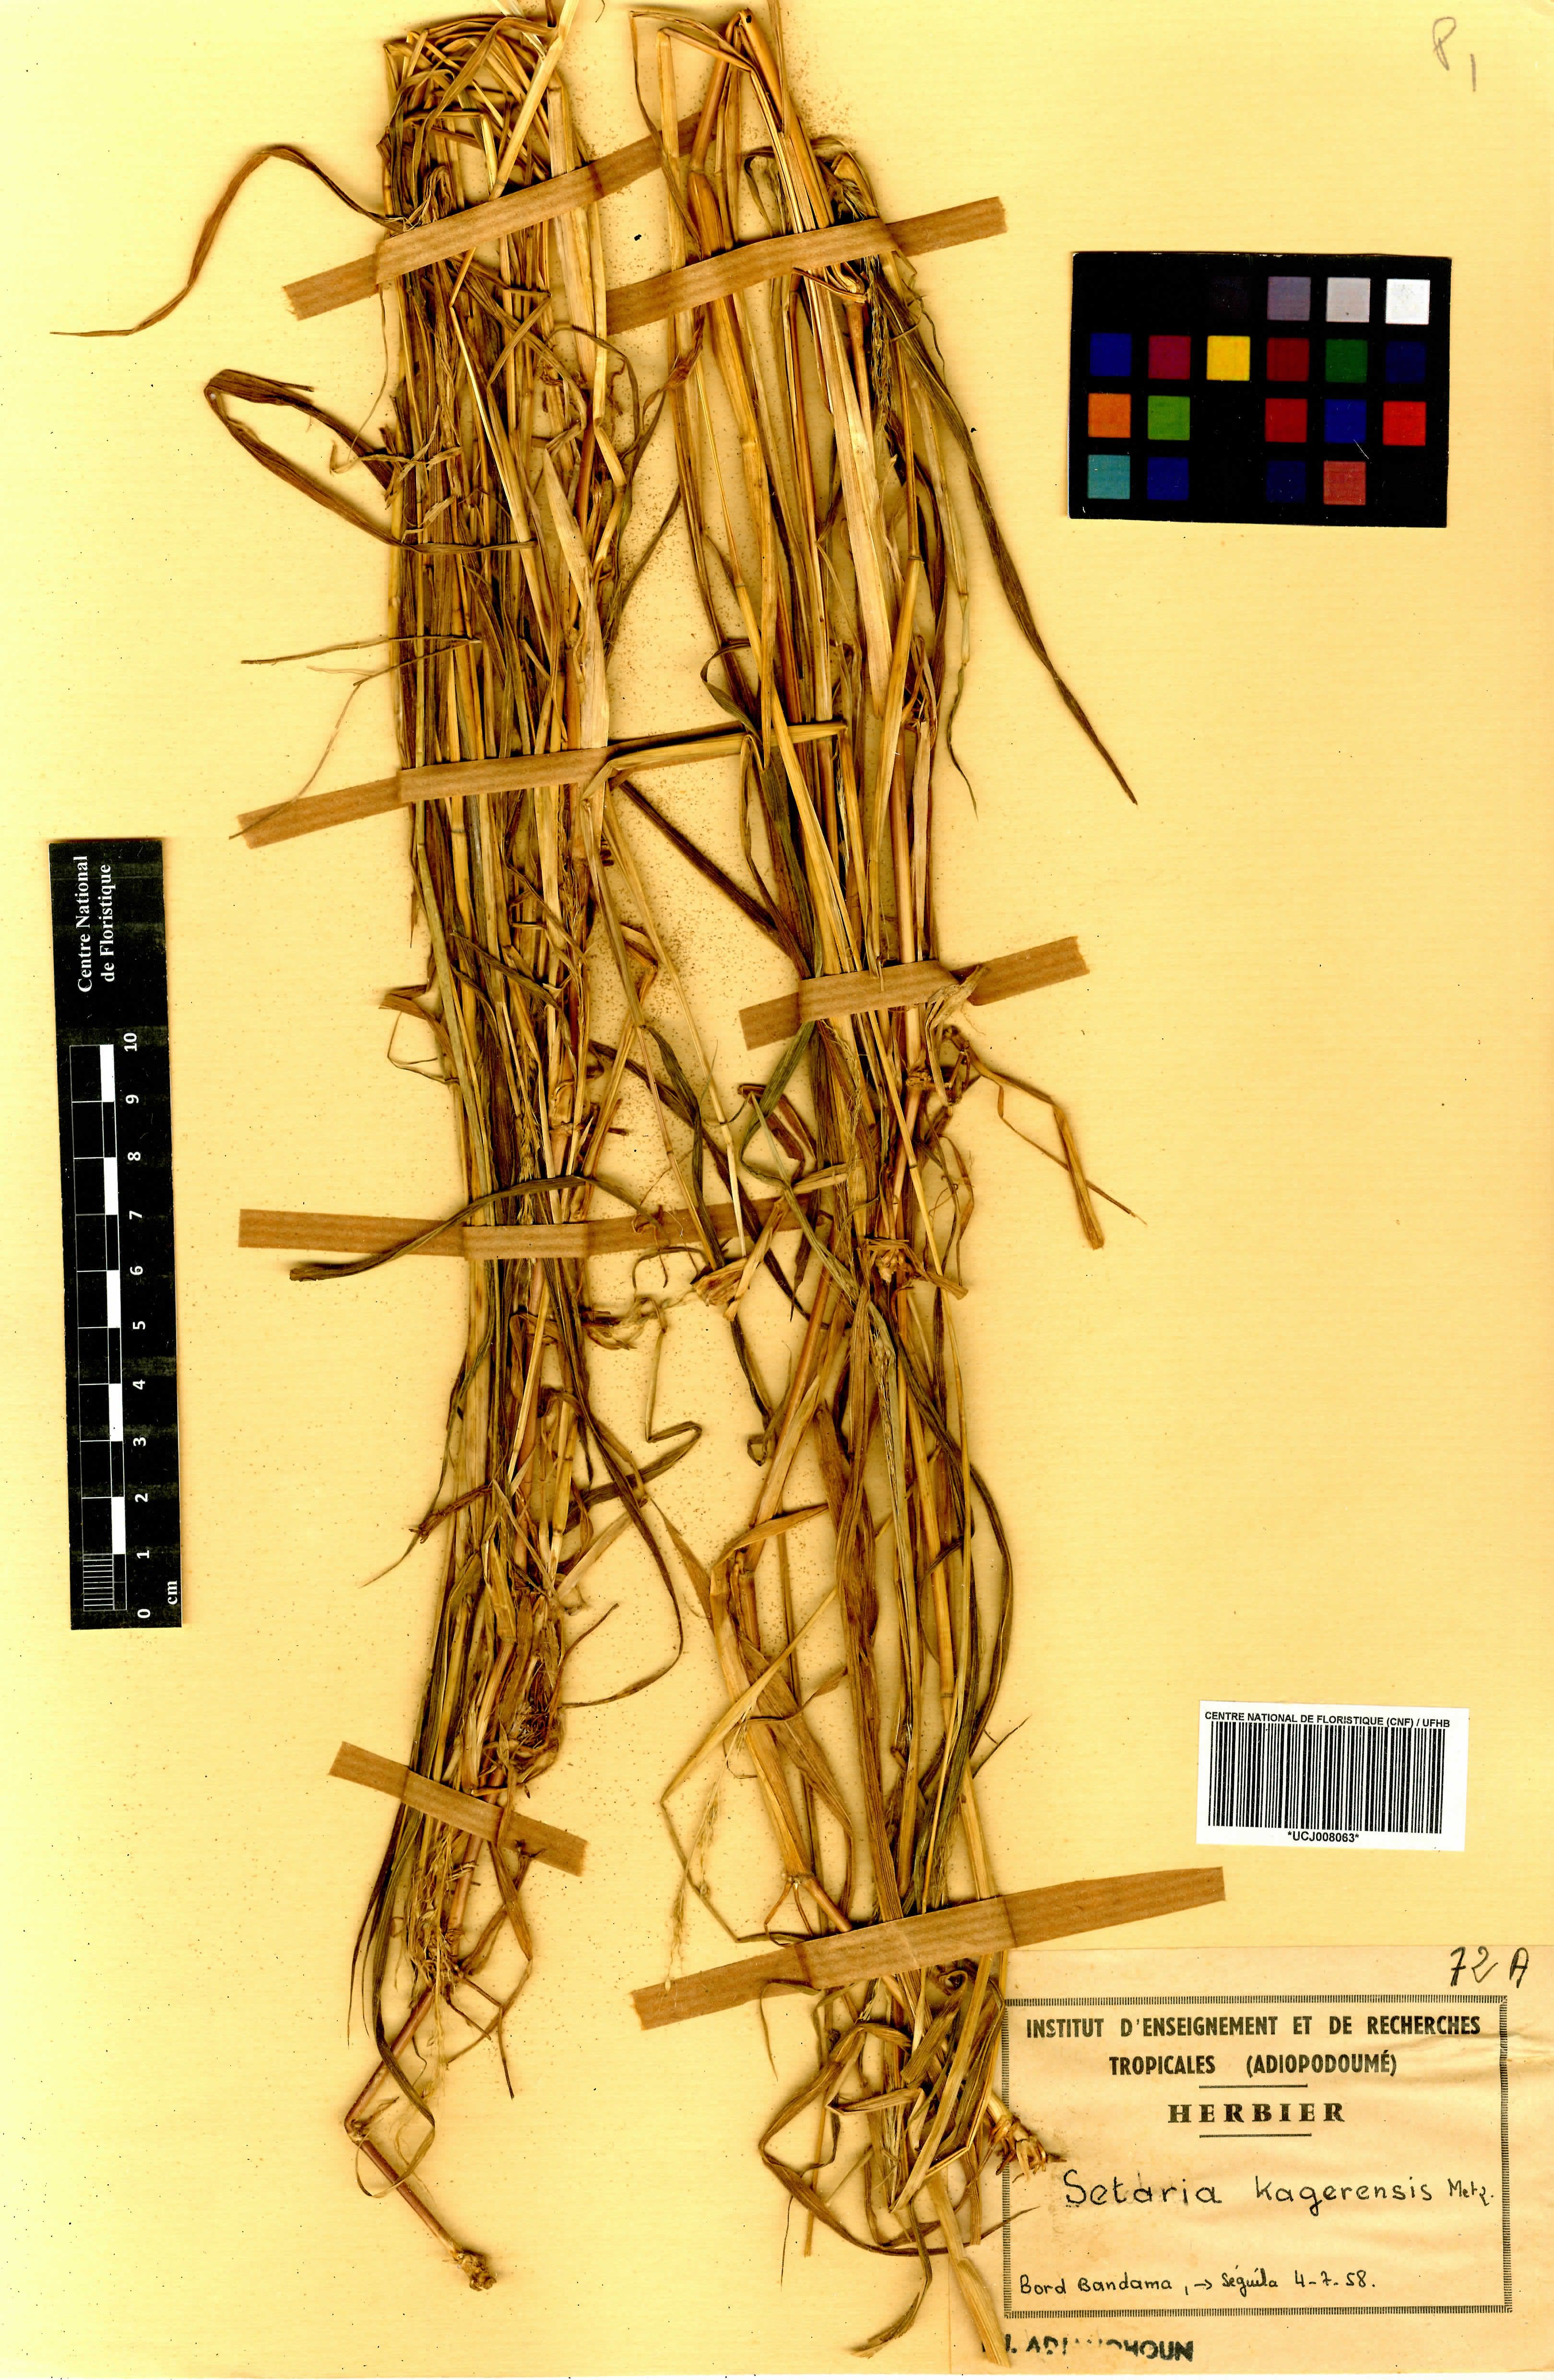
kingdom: Plantae
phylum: Tracheophyta
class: Liliopsida
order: Poales
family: Poaceae
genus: Setaria
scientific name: Setaria megaphylla
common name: Bigleaf bristlegrass
